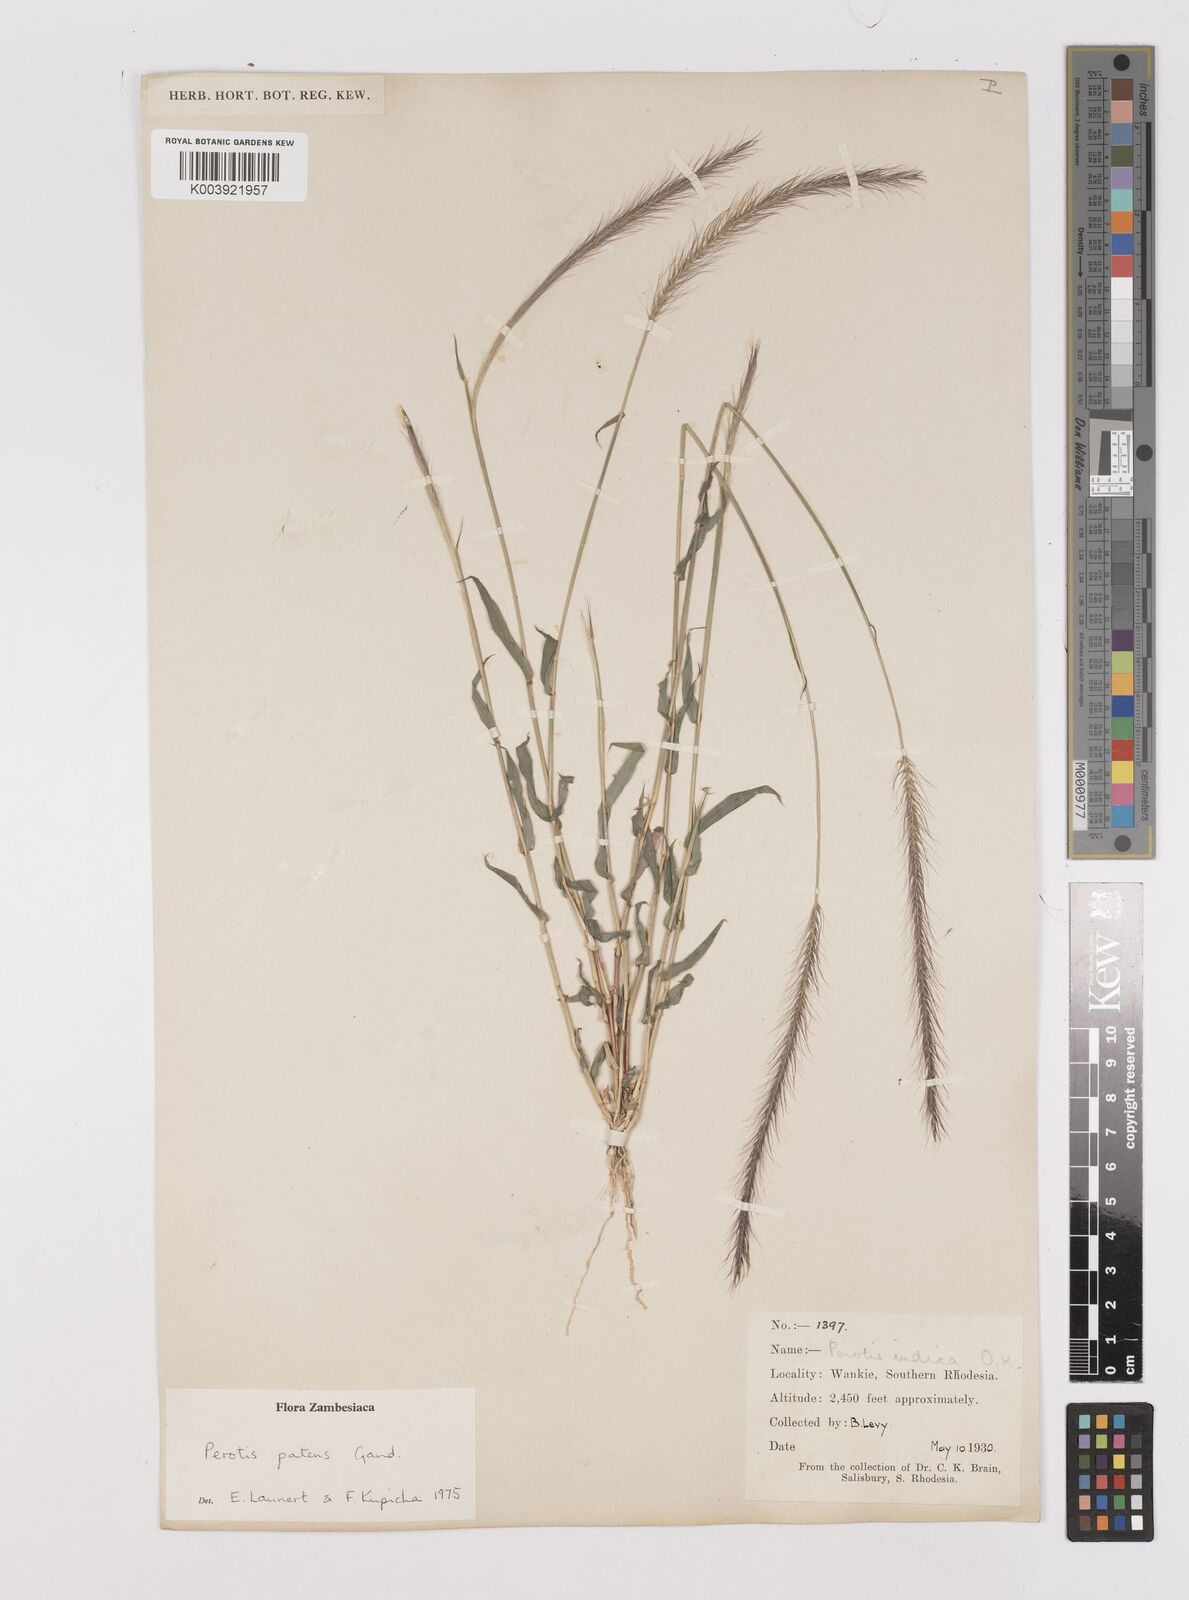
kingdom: Plantae
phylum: Tracheophyta
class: Liliopsida
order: Poales
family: Poaceae
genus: Perotis
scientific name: Perotis patens
